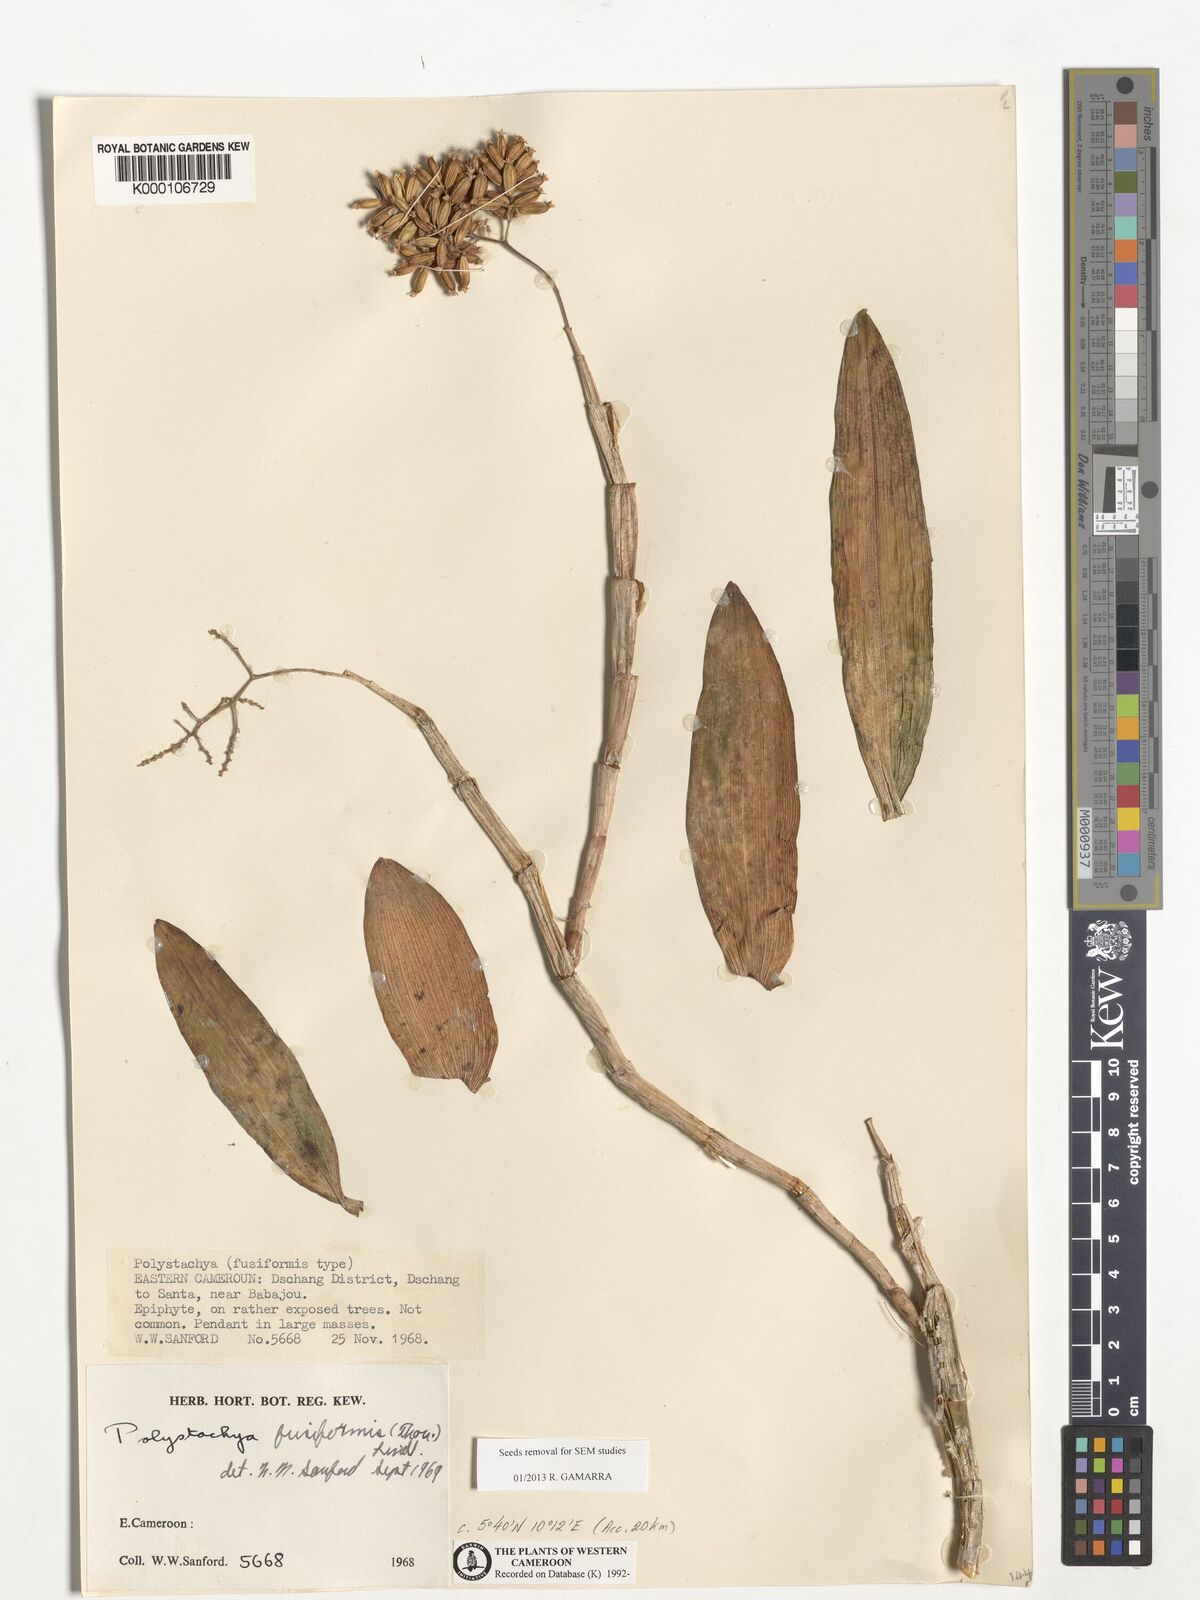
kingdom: Plantae
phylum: Tracheophyta
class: Liliopsida
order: Asparagales
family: Orchidaceae
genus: Polystachya
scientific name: Polystachya fusiformis
